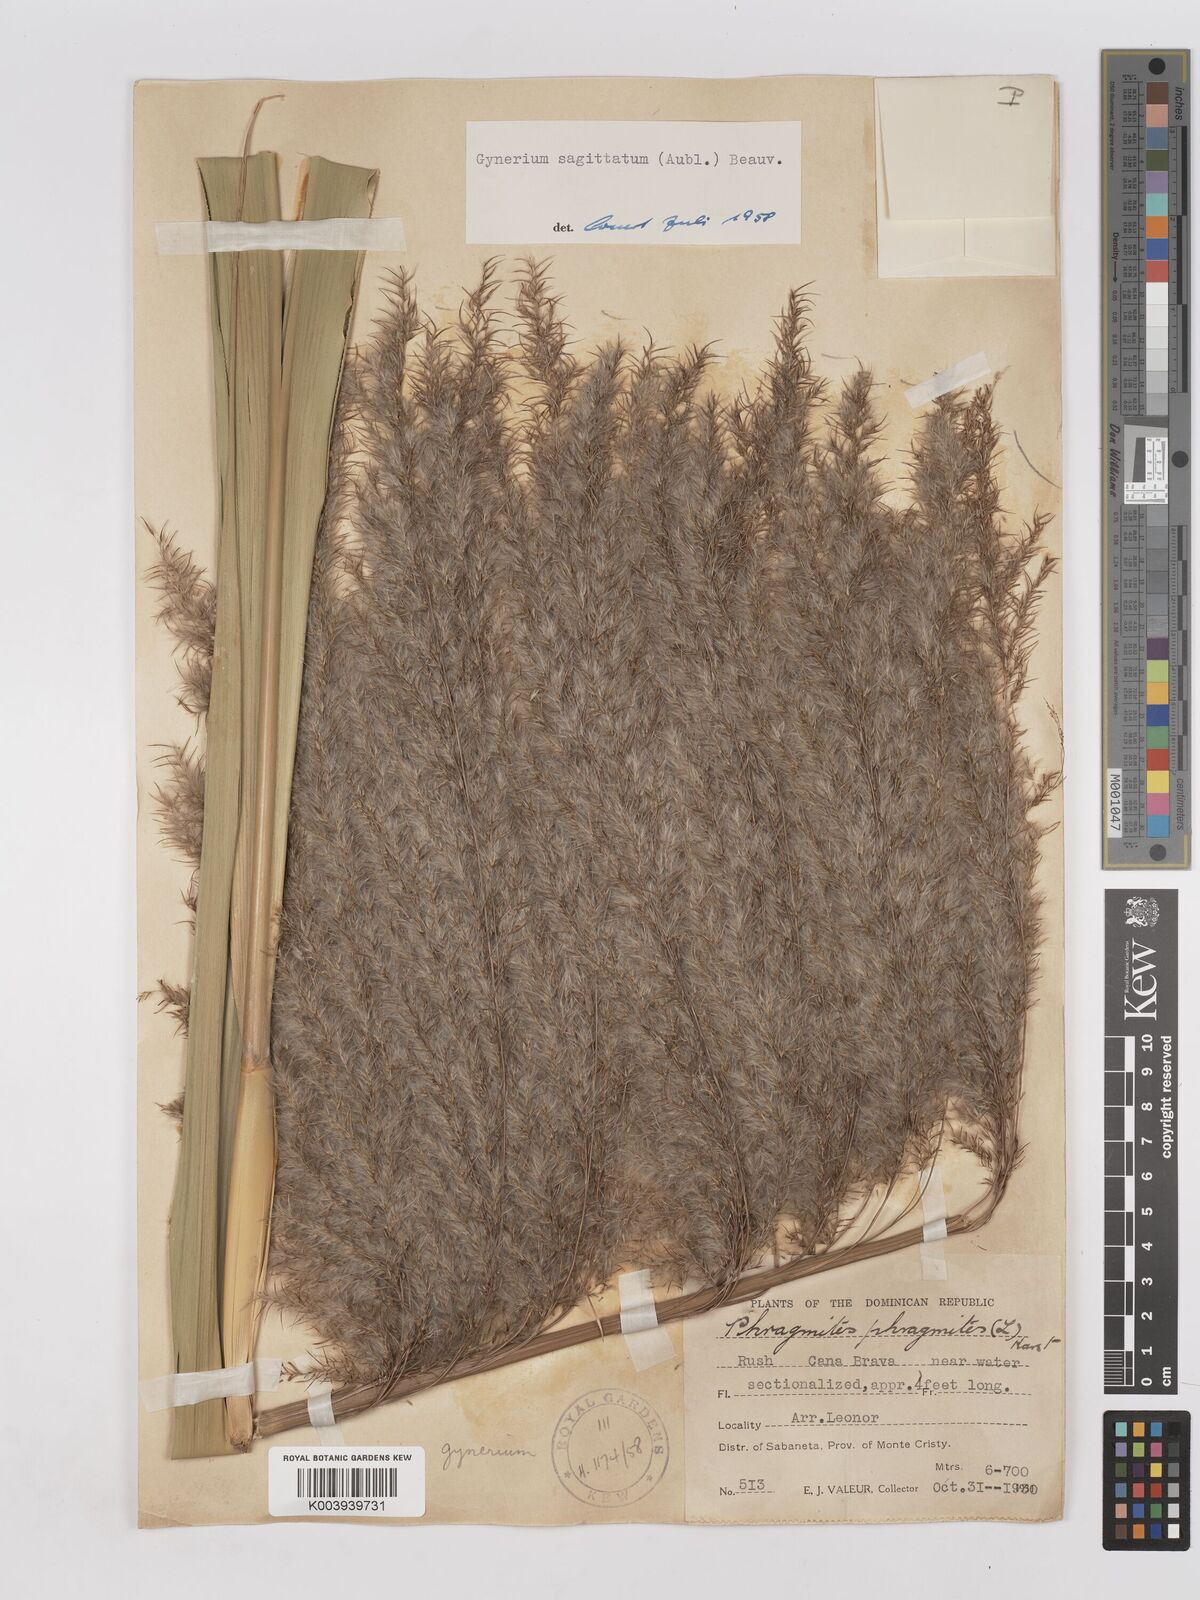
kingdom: Plantae
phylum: Tracheophyta
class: Liliopsida
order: Poales
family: Poaceae
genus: Gynerium
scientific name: Gynerium sagittatum
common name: Wild cane
